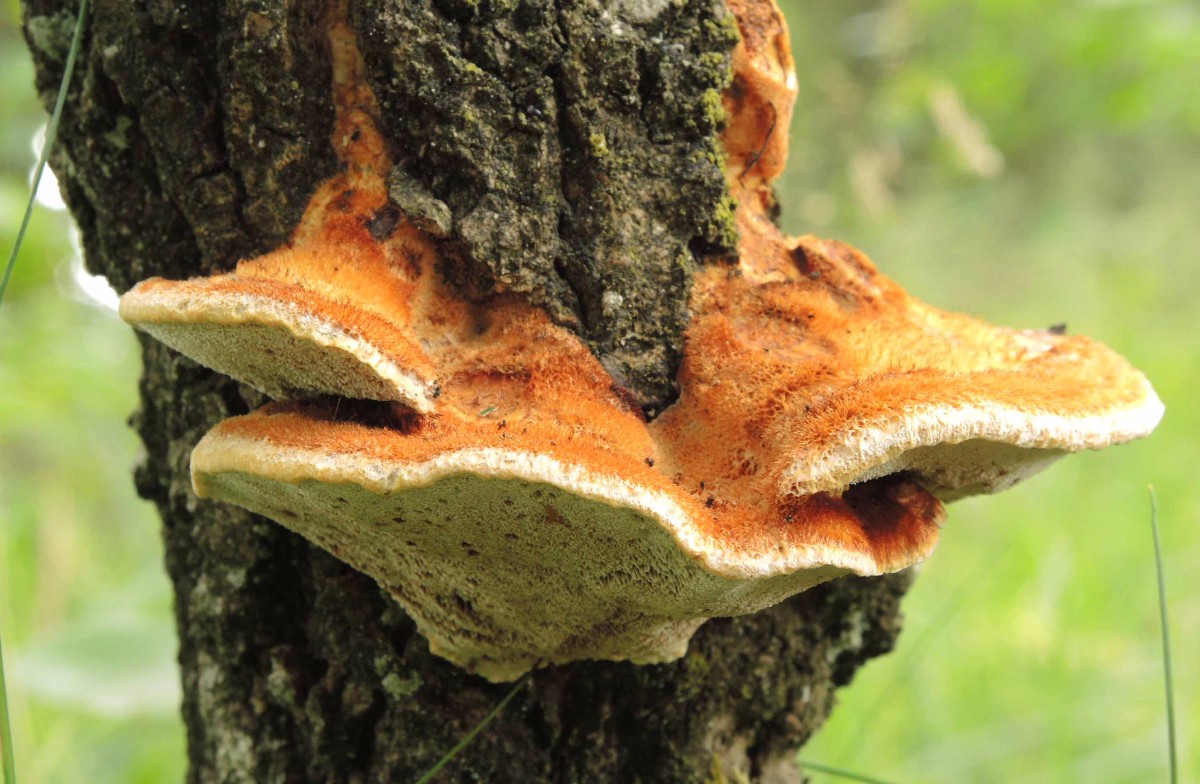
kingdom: Fungi
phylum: Basidiomycota
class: Agaricomycetes
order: Hymenochaetales
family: Hymenochaetaceae
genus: Inocutis
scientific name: Inocutis rheades
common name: ræve-spejlporesvamp
